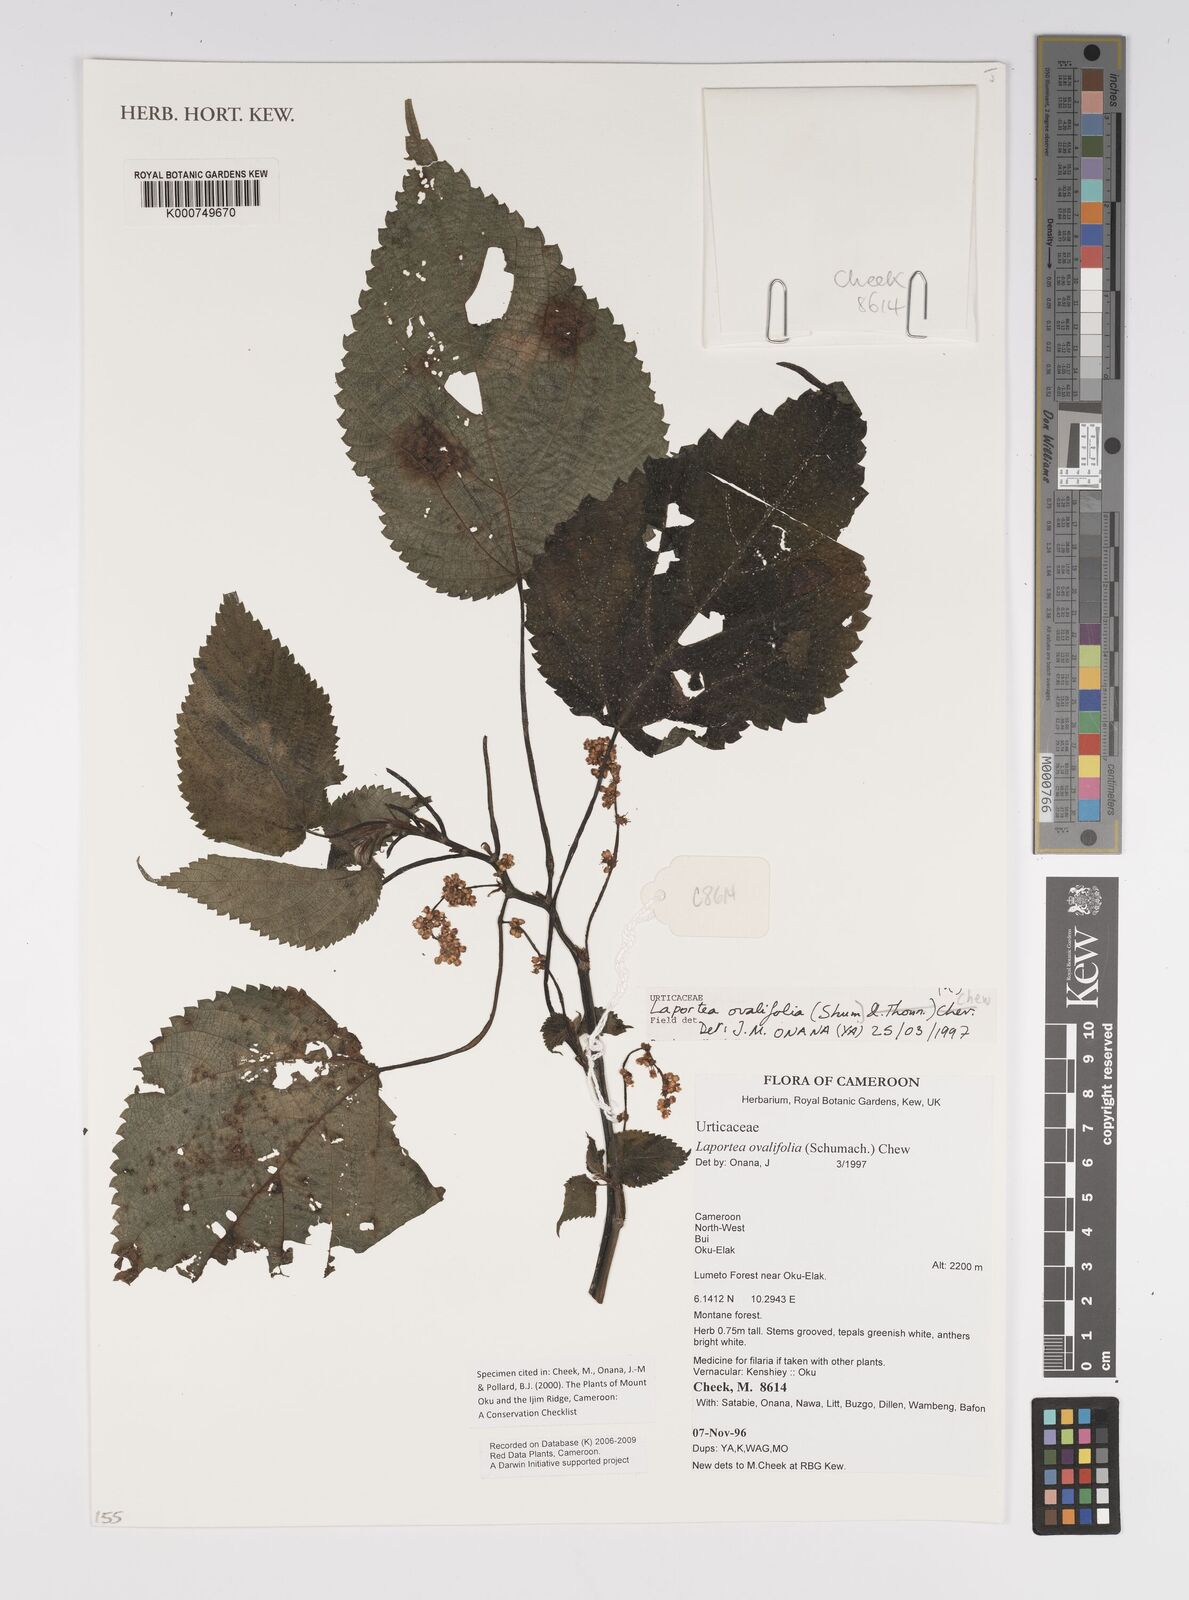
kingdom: Plantae
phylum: Tracheophyta
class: Magnoliopsida
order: Rosales
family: Urticaceae
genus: Laportea
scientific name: Laportea ovalifolia
